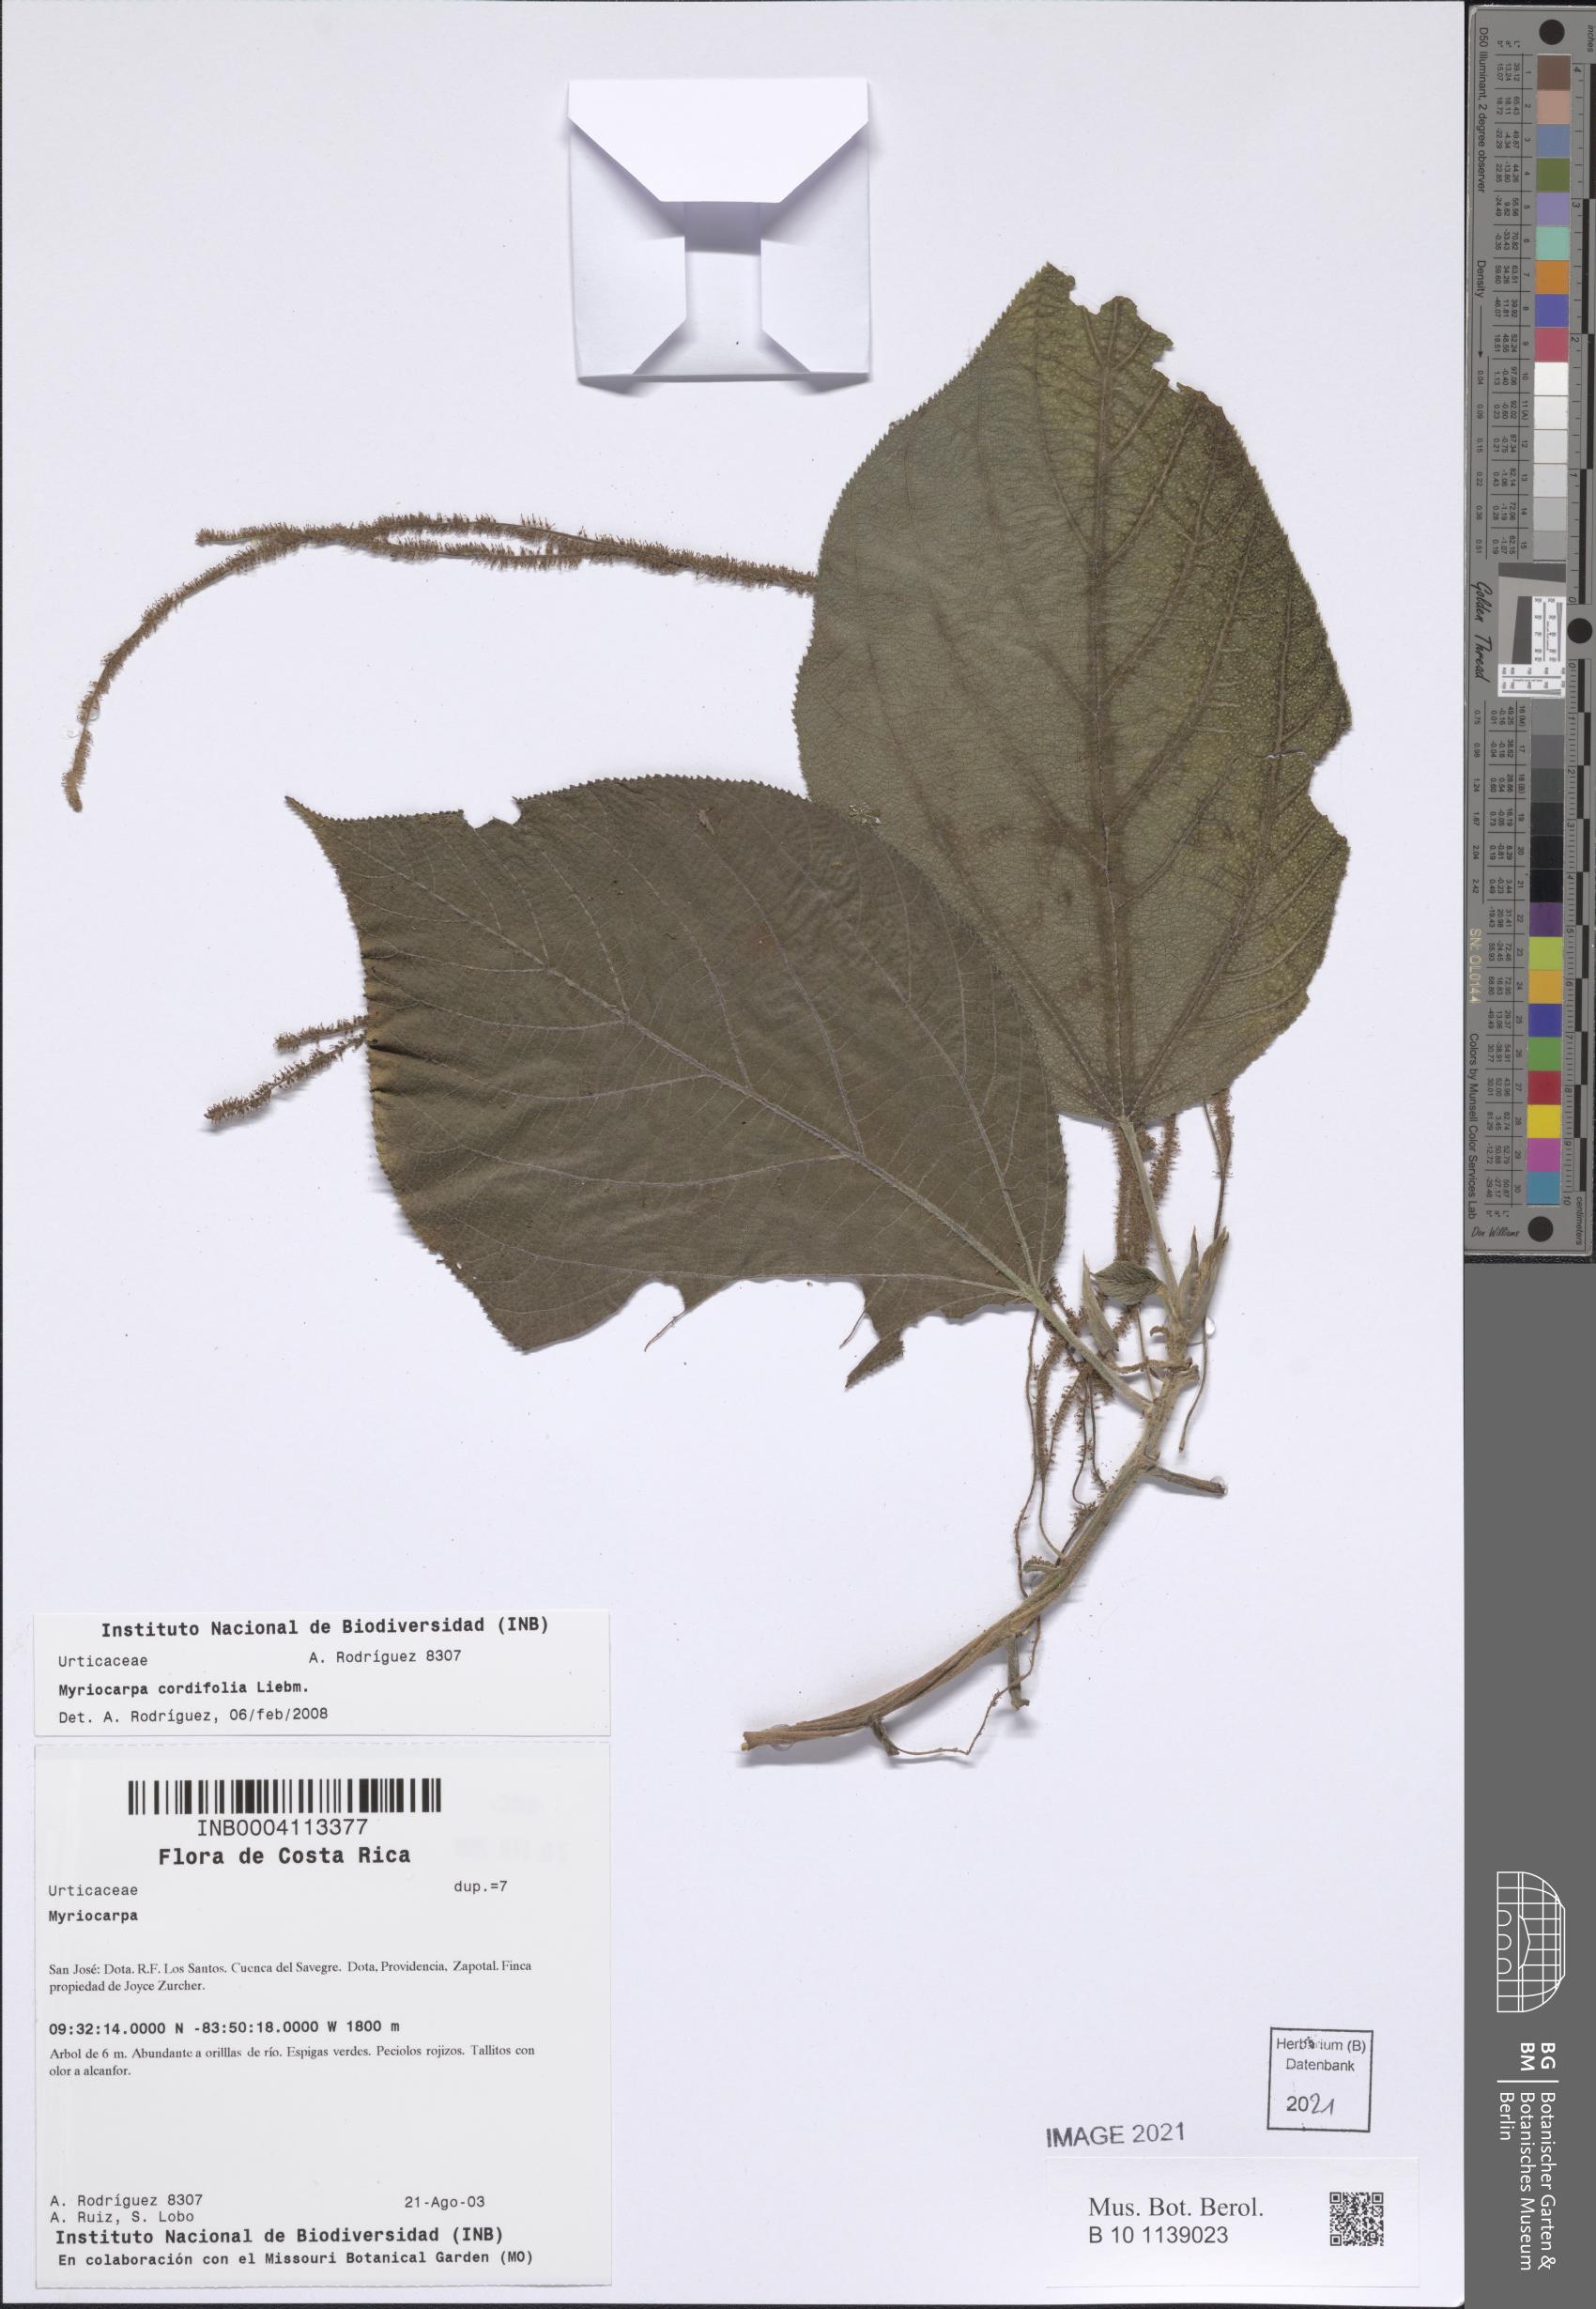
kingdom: Plantae
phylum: Tracheophyta
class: Magnoliopsida
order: Rosales
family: Urticaceae
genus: Myriocarpa
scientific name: Myriocarpa cordifolia
